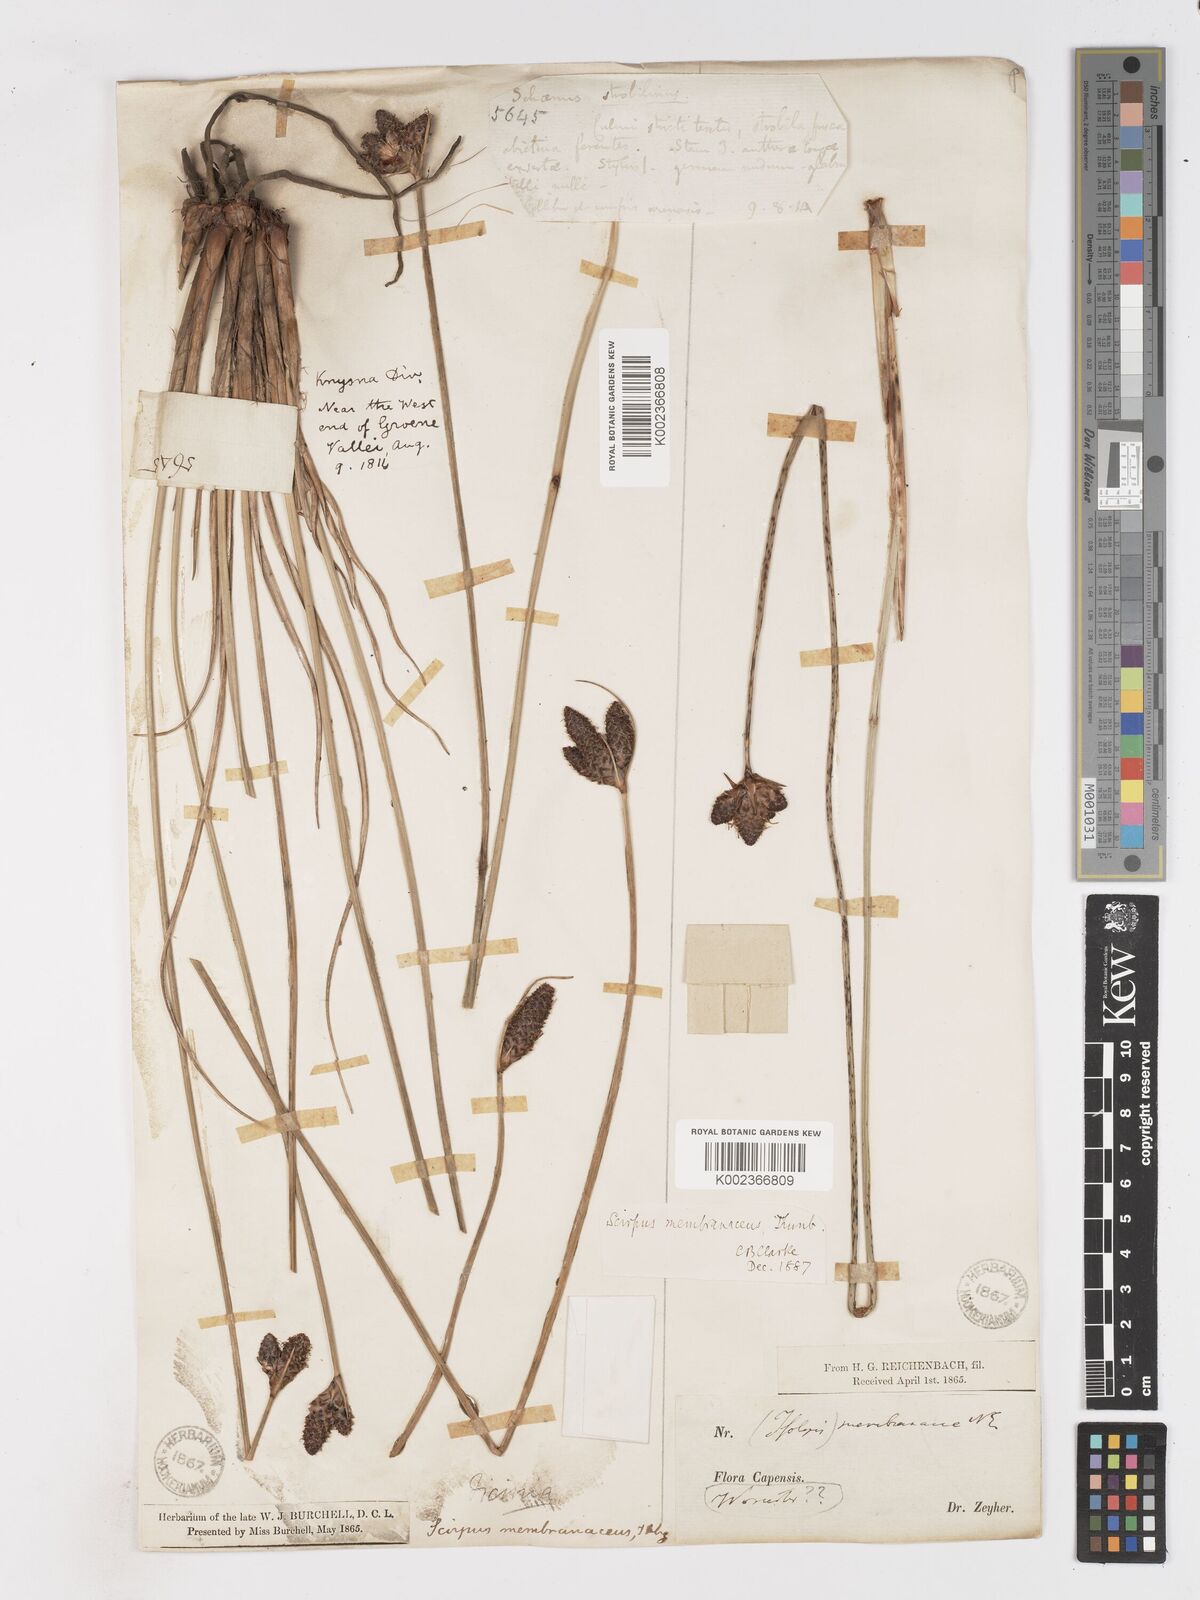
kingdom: Plantae
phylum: Tracheophyta
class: Liliopsida
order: Poales
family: Cyperaceae
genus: Hellmuthia
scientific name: Hellmuthia membranacea
